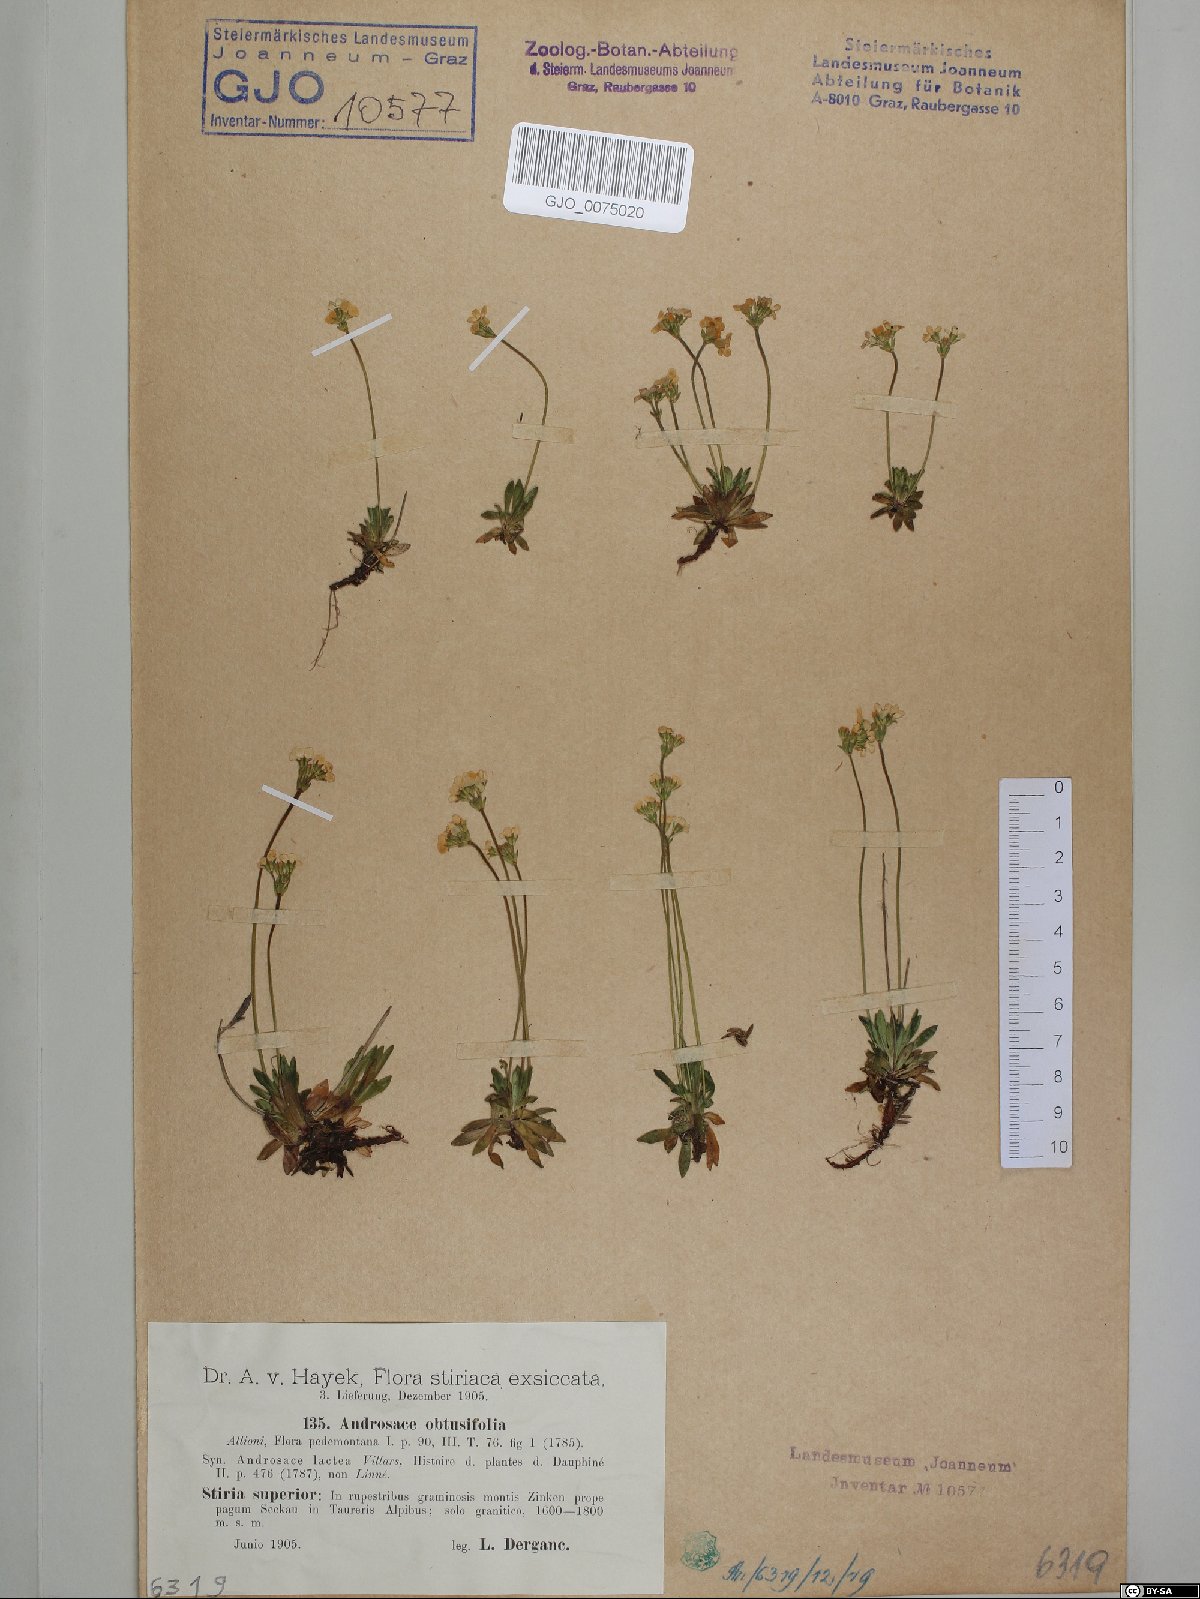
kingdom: Plantae
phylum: Tracheophyta
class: Magnoliopsida
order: Ericales
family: Primulaceae
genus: Androsace
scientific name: Androsace obtusifolia
